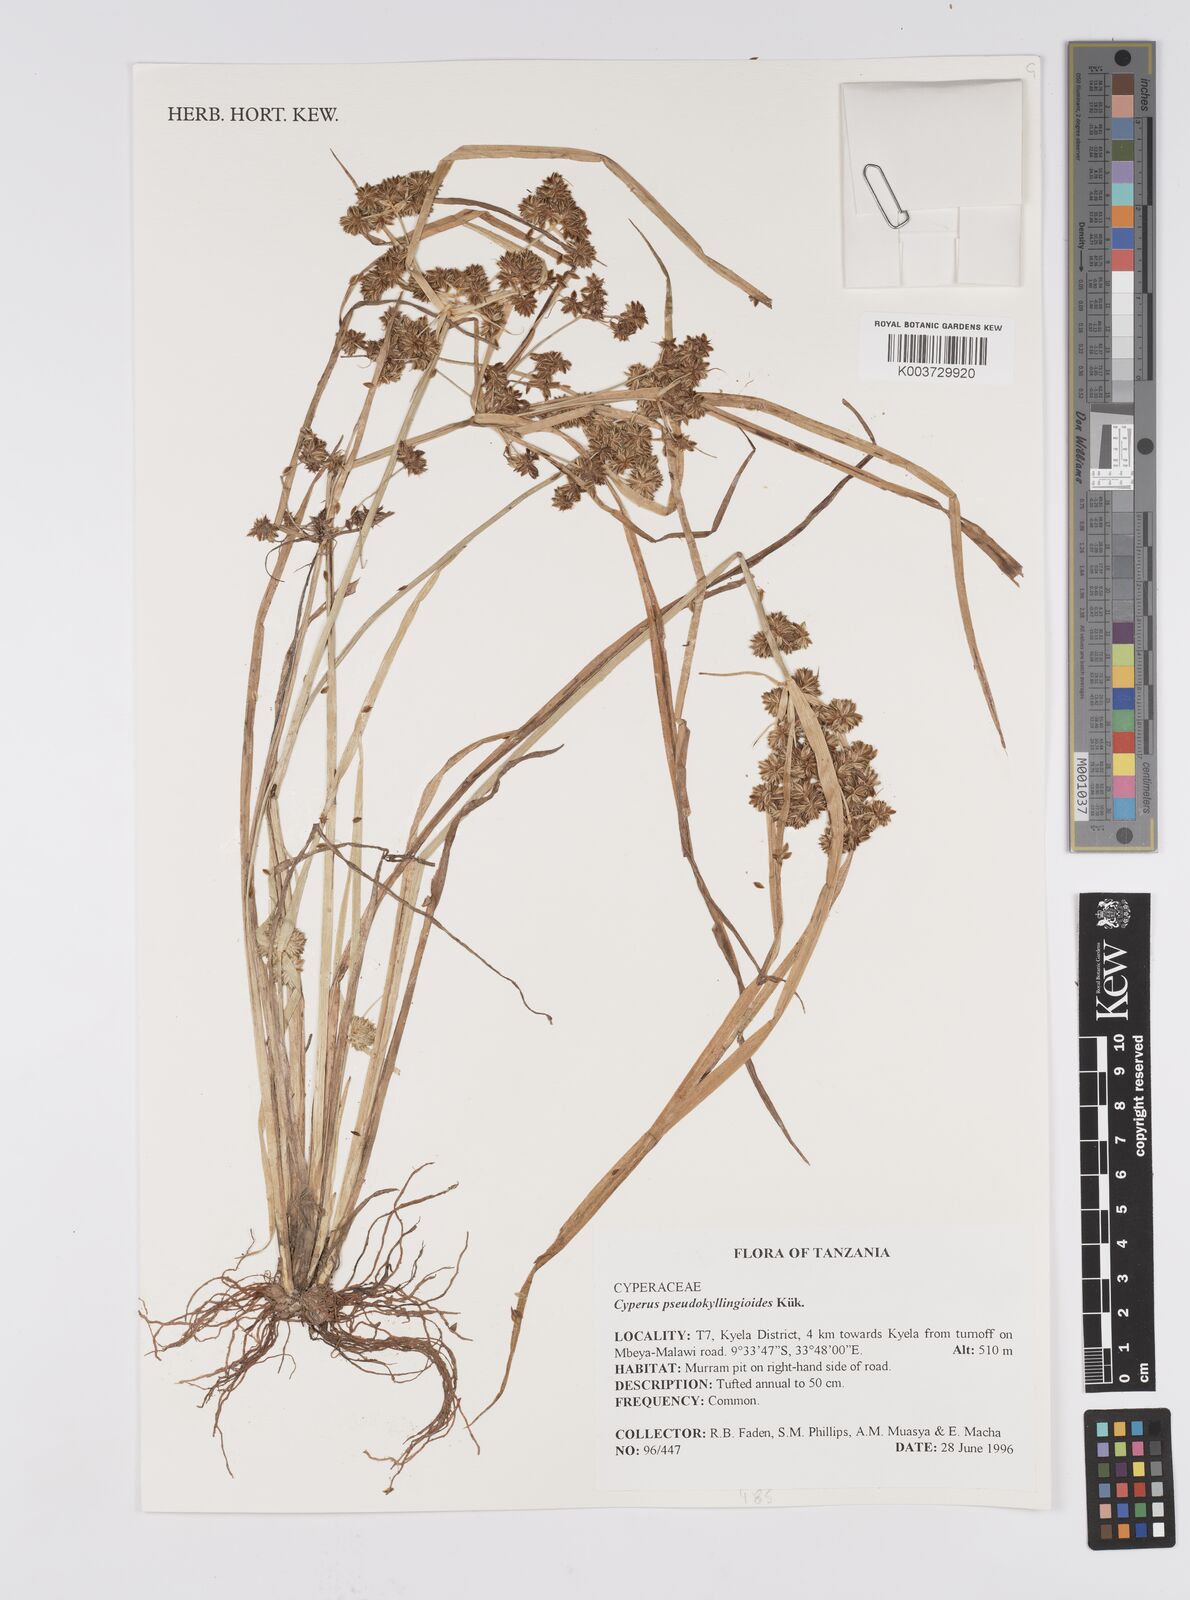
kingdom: Plantae
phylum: Tracheophyta
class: Liliopsida
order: Poales
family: Cyperaceae
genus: Cyperus
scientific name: Cyperus pseudokyllingioides
